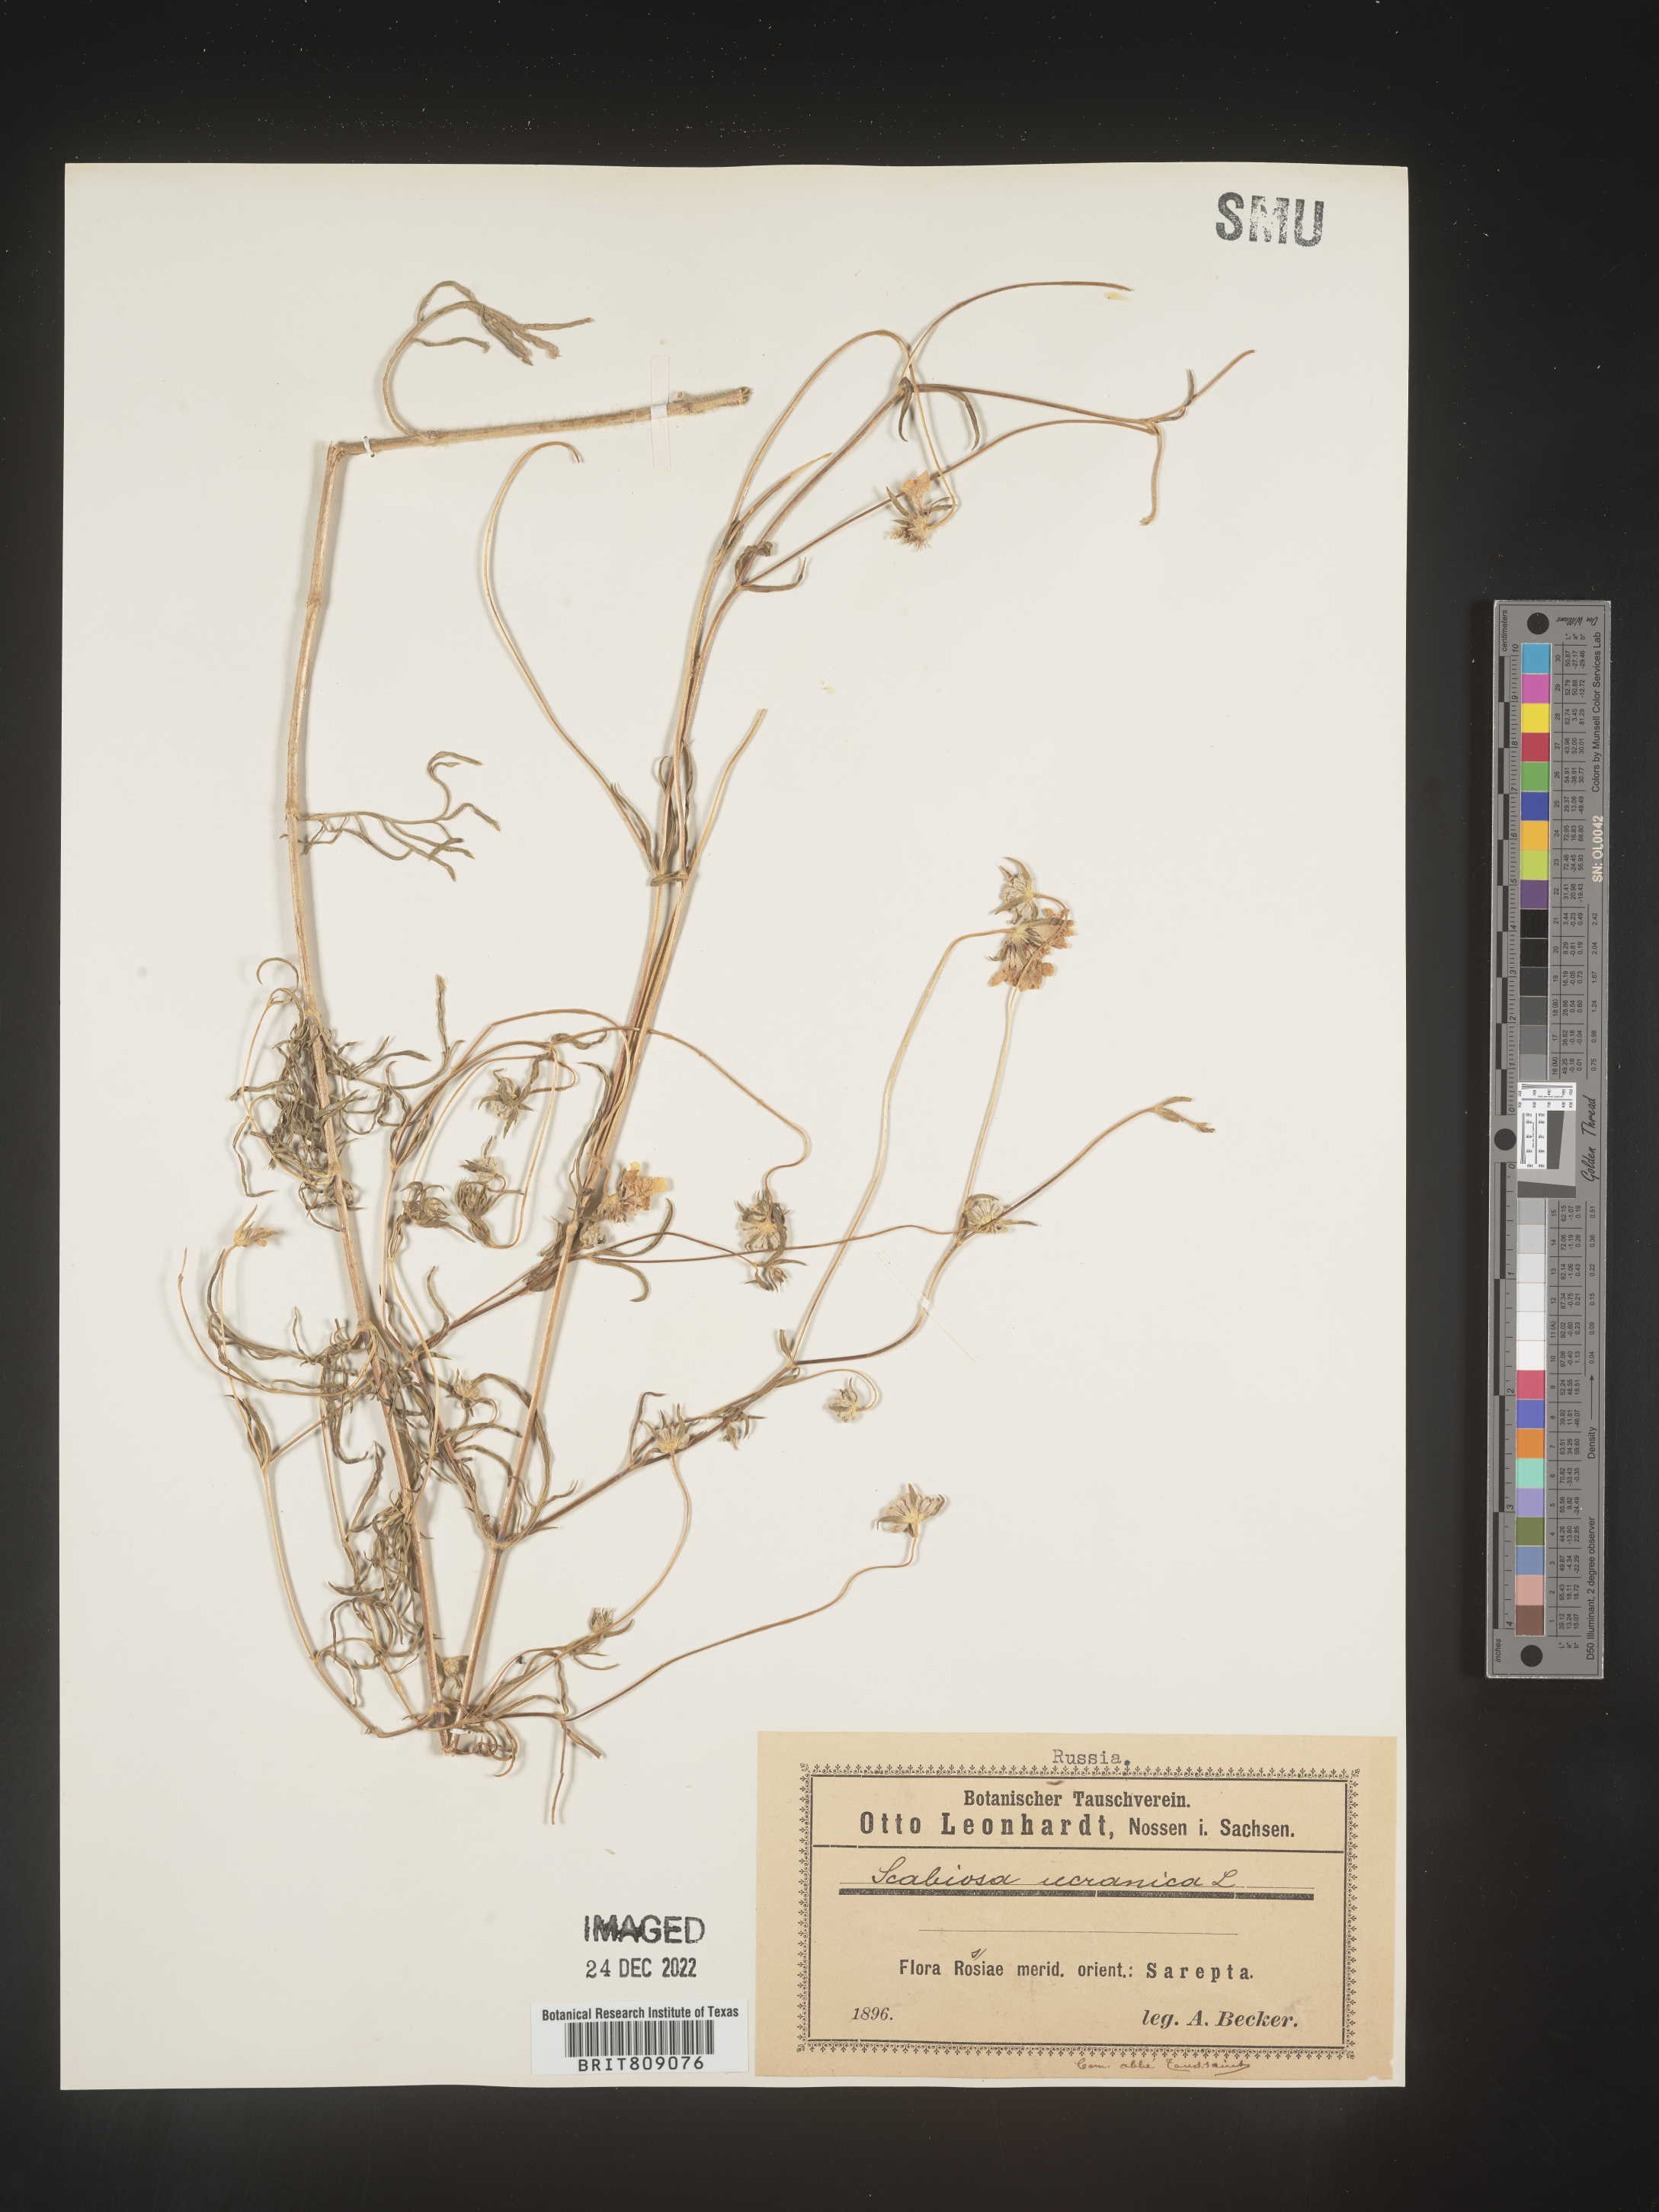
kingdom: Plantae
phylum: Tracheophyta
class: Magnoliopsida
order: Dipsacales
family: Caprifoliaceae
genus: Scabiosa
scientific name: Scabiosa
